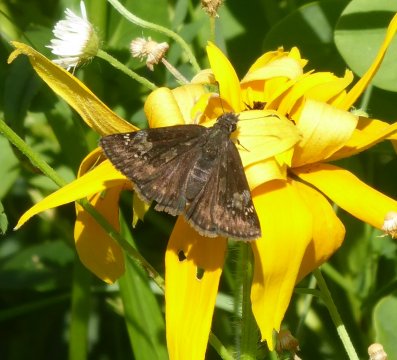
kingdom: Animalia
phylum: Arthropoda
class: Insecta
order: Lepidoptera
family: Hesperiidae
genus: Gesta
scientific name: Gesta
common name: Wild Indigo Duskywing
